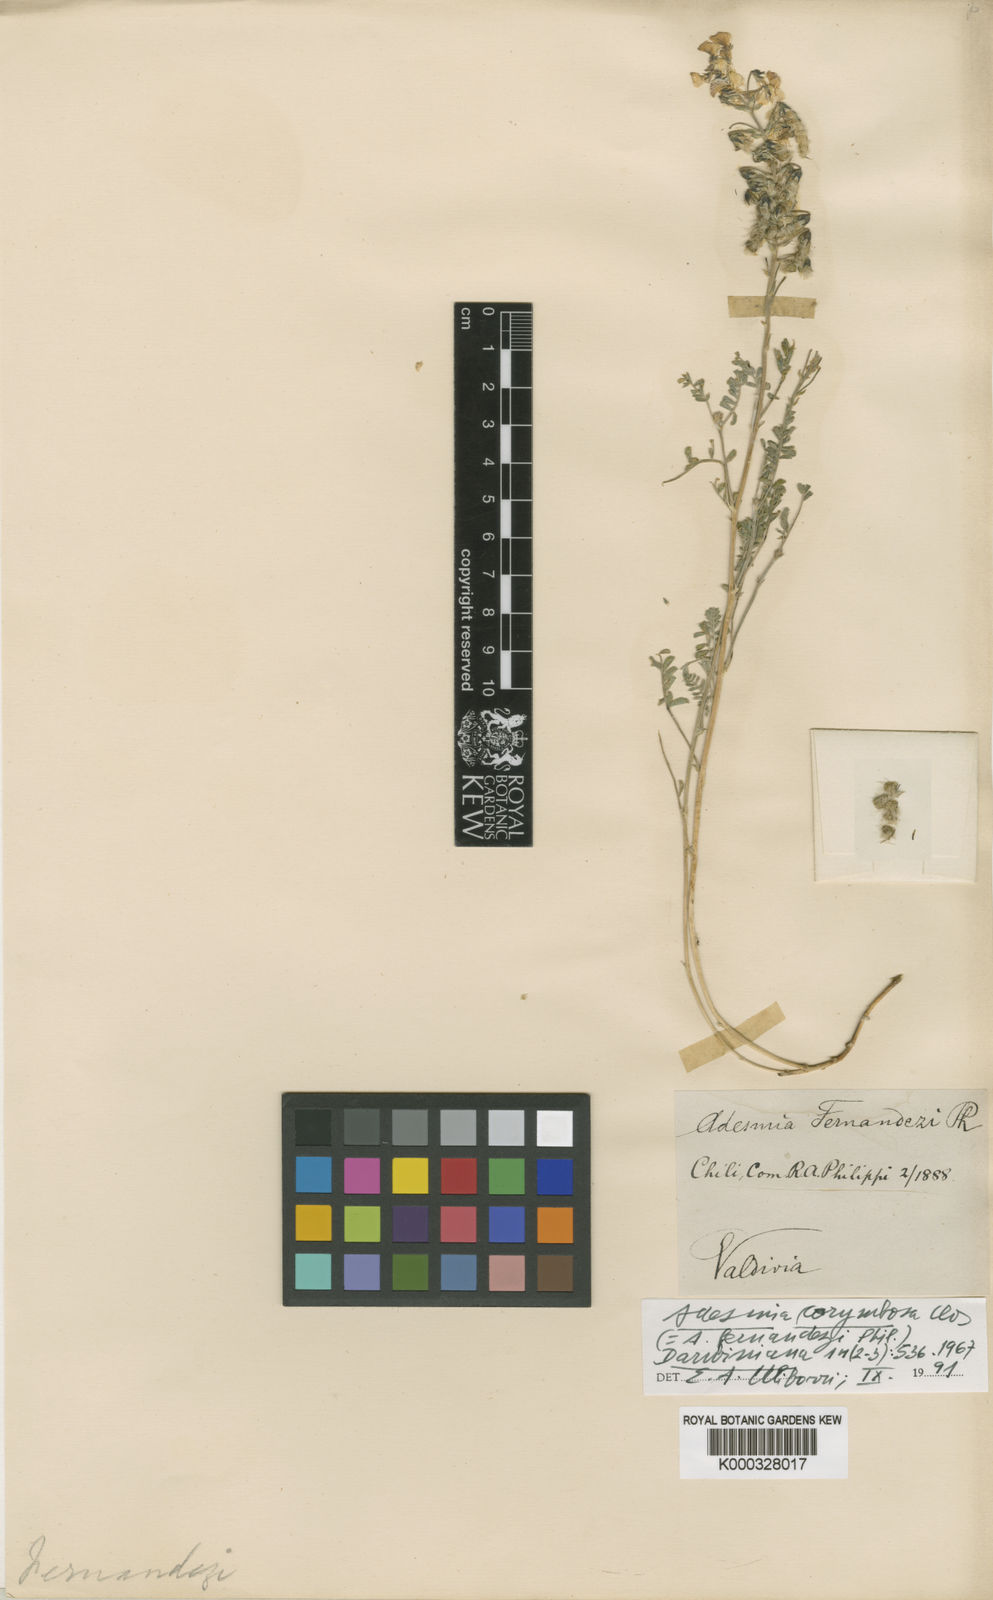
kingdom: Plantae
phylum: Tracheophyta
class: Magnoliopsida
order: Fabales
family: Fabaceae
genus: Adesmia
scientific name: Adesmia corymbosa
